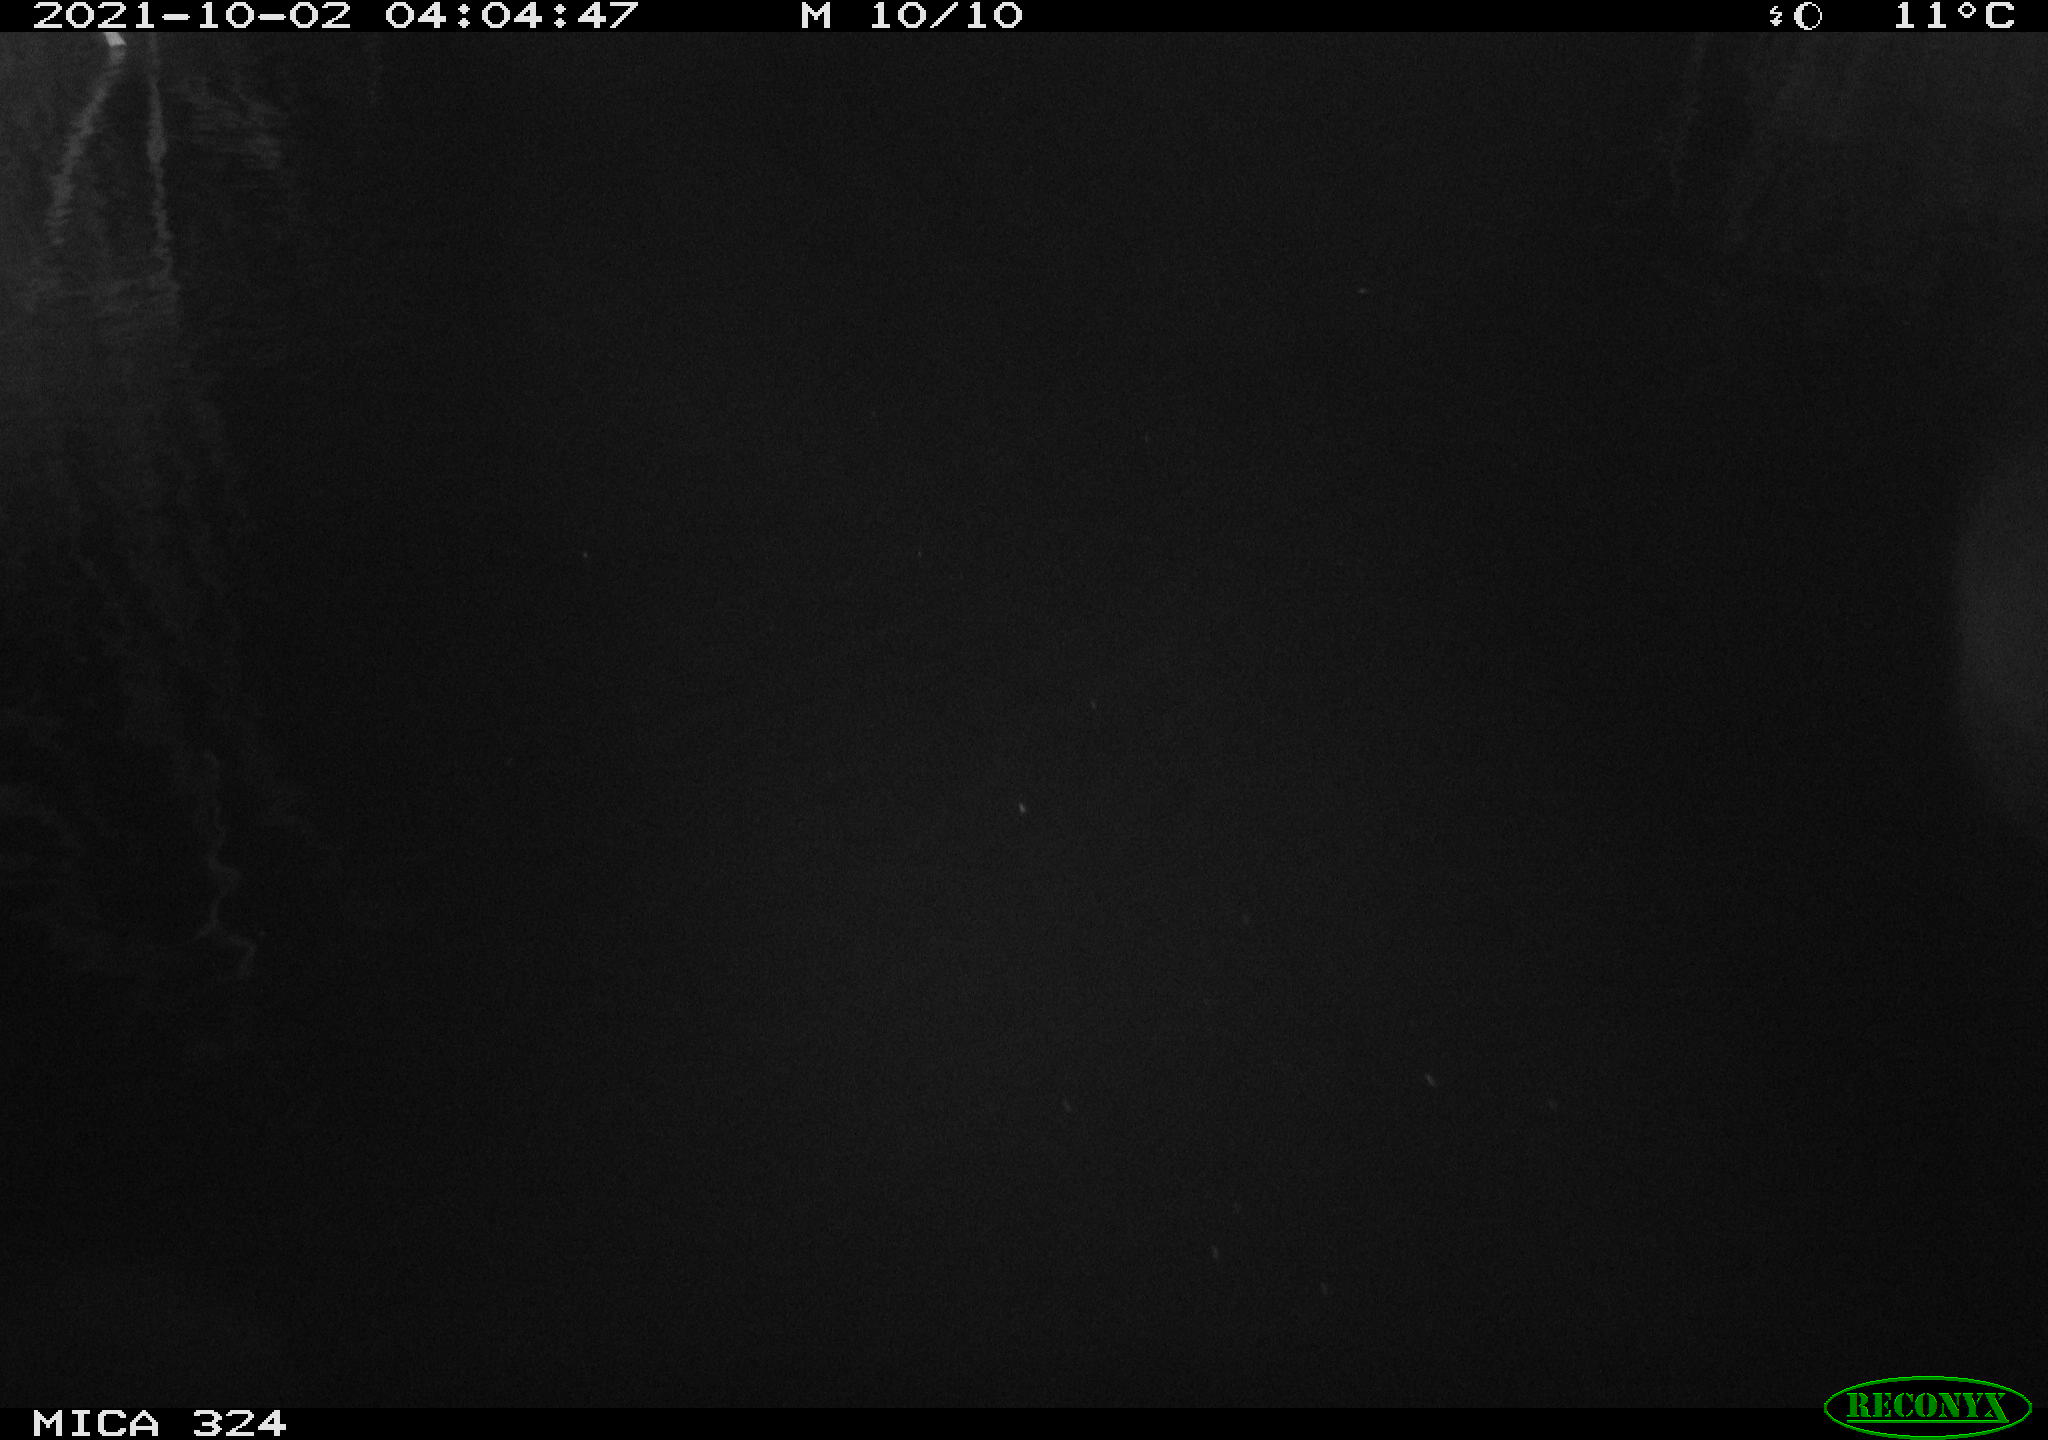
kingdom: Animalia
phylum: Chordata
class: Mammalia
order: Rodentia
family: Cricetidae
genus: Ondatra
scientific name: Ondatra zibethicus
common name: Muskrat
